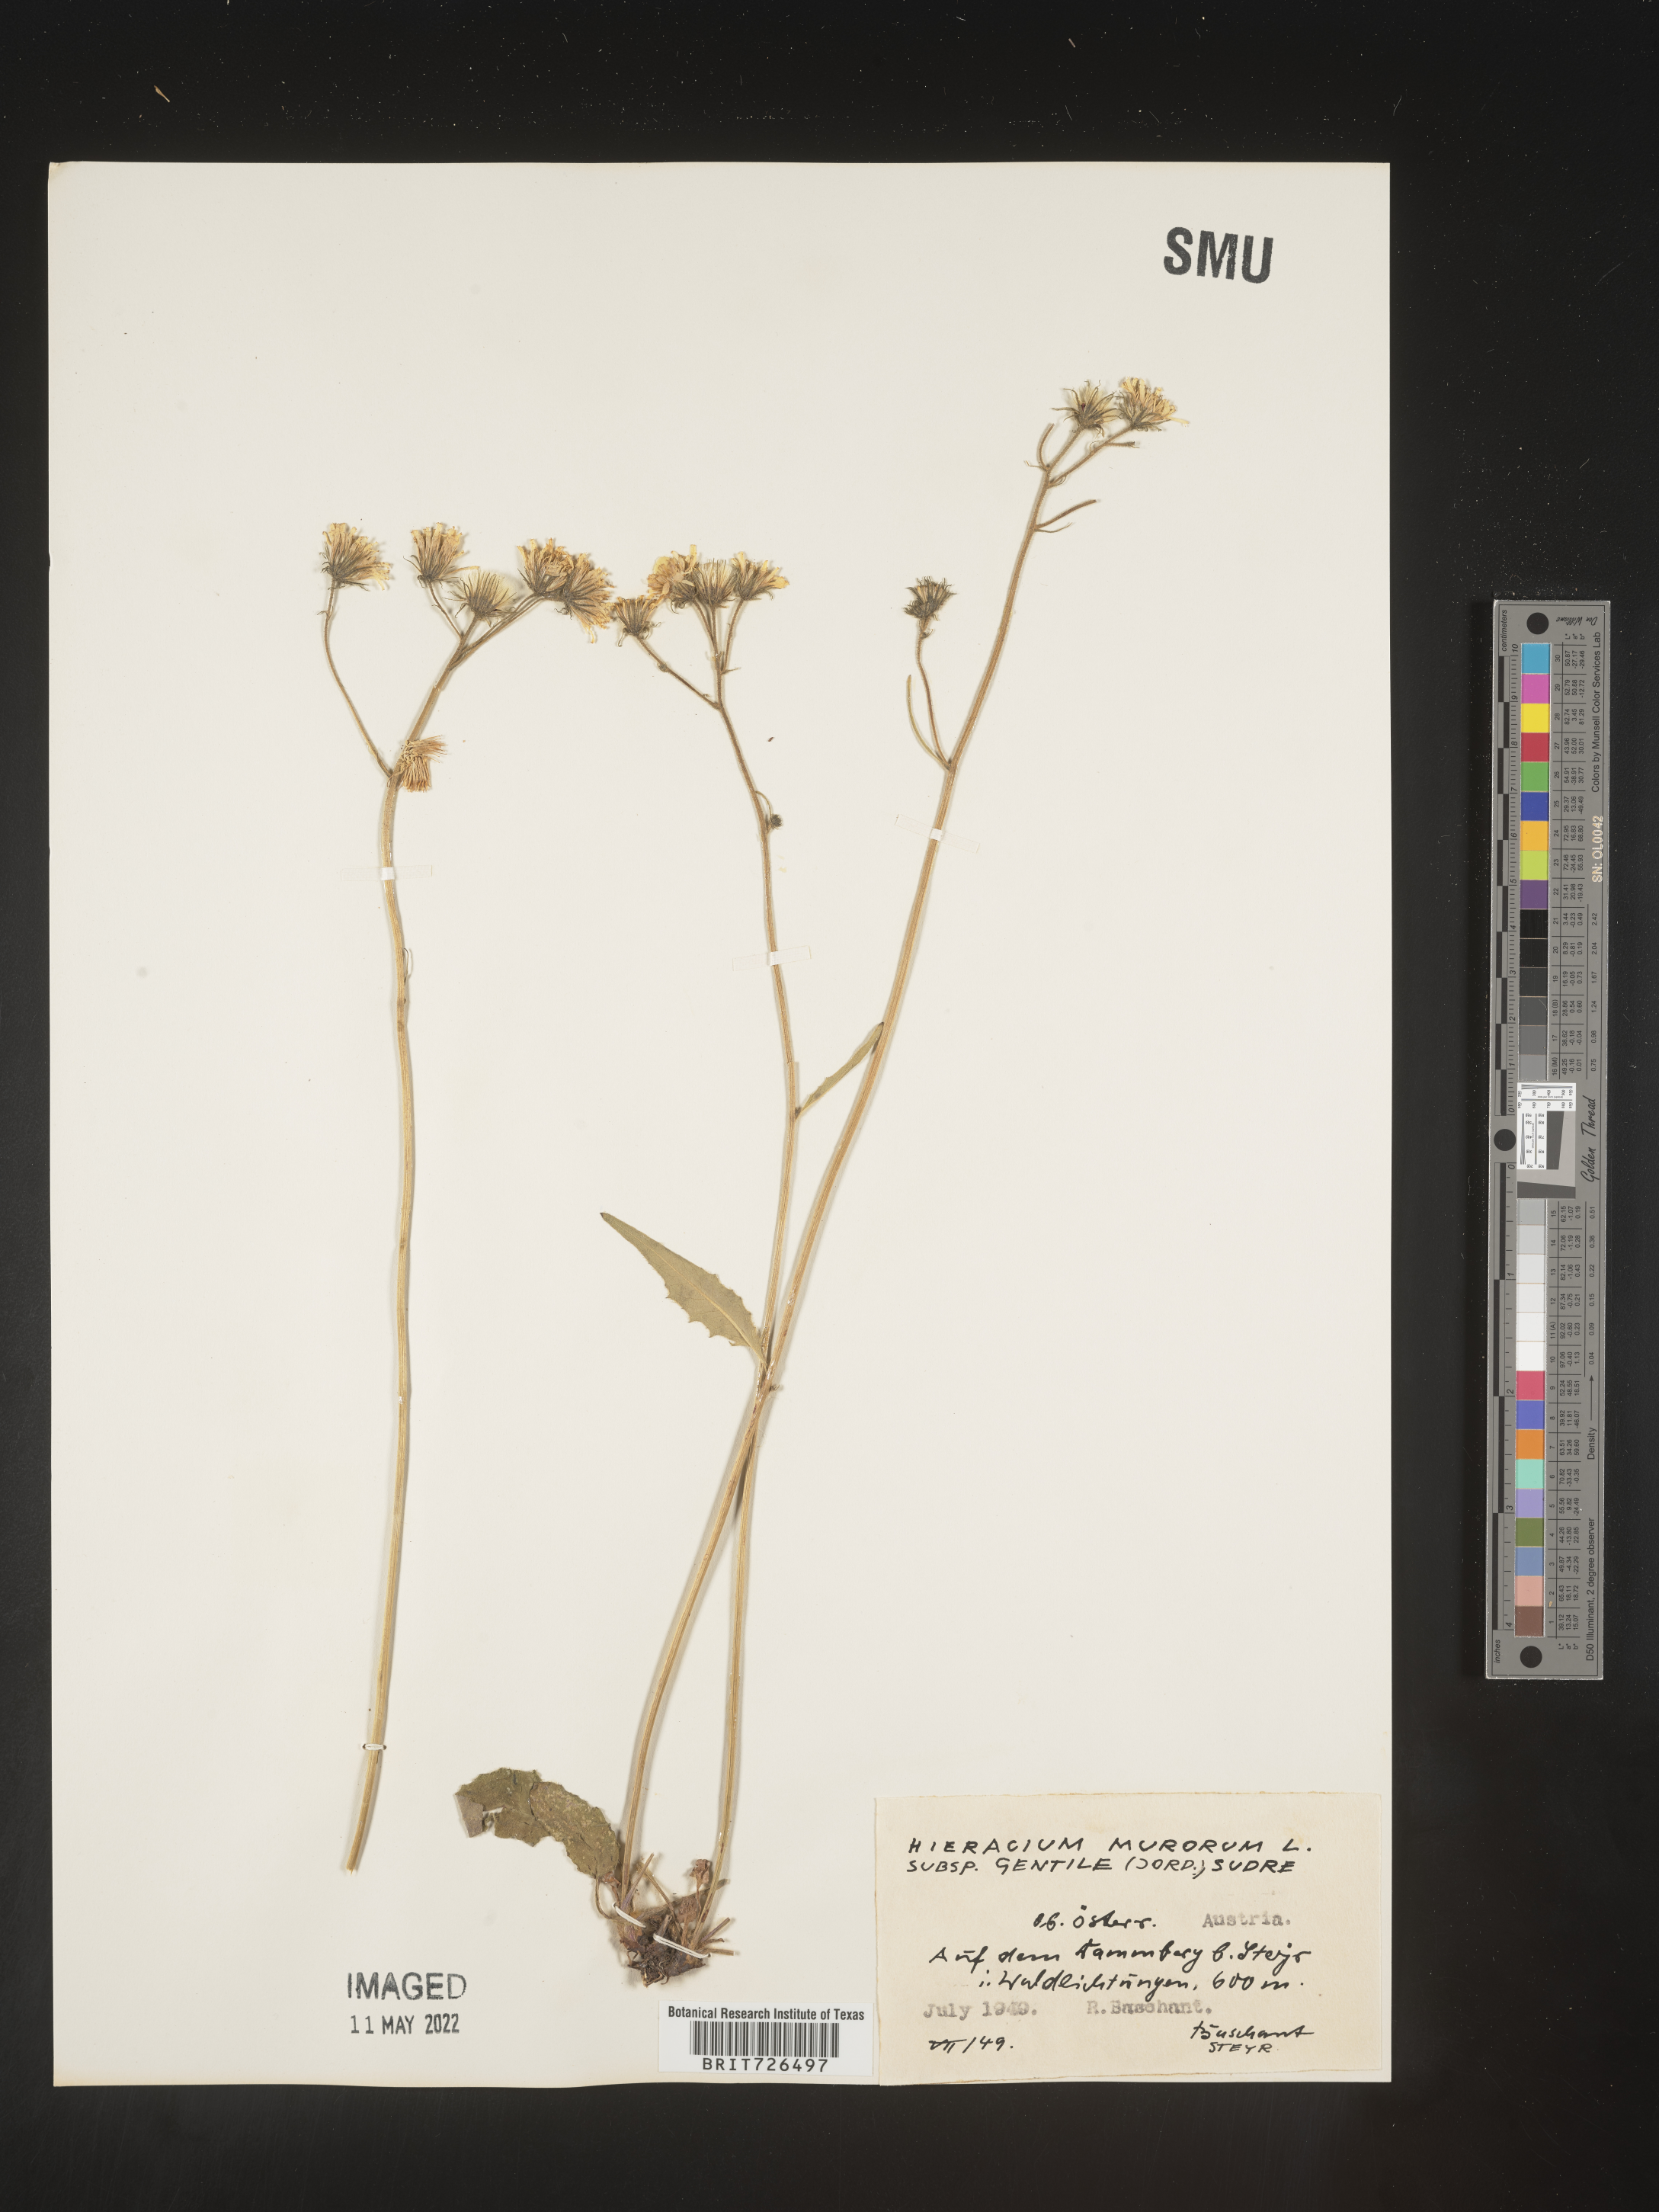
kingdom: Plantae
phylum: Tracheophyta
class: Magnoliopsida
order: Asterales
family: Asteraceae
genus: Hieracium
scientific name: Hieracium
